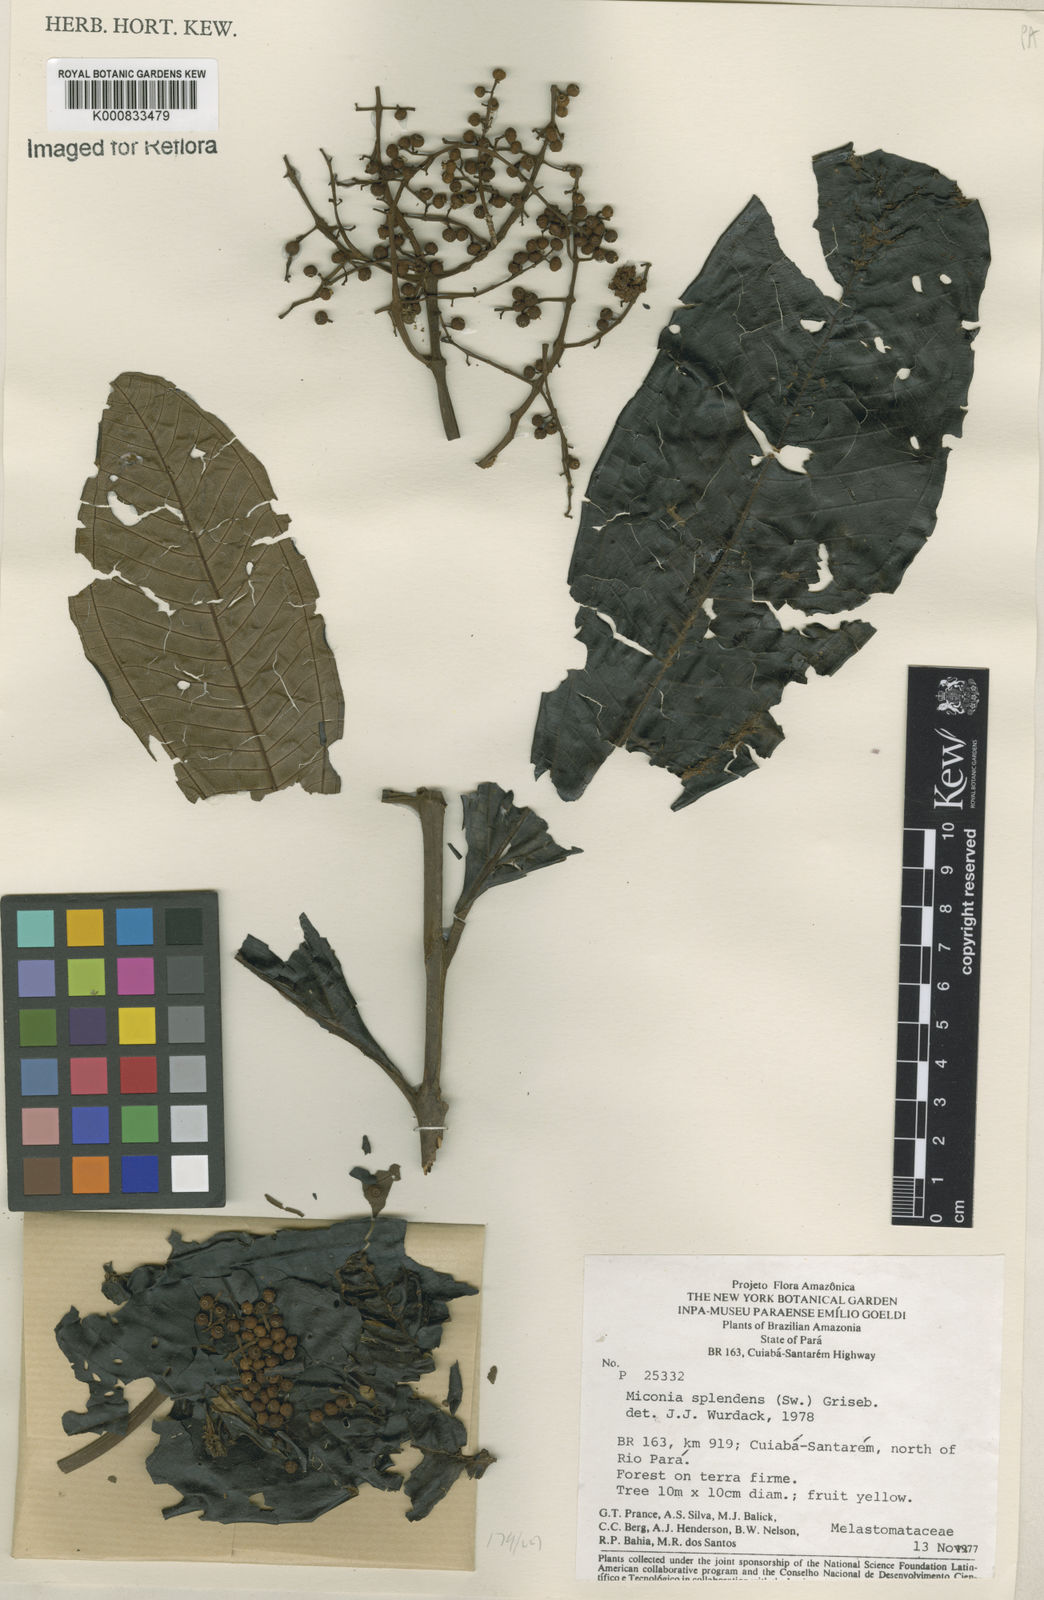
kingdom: Plantae
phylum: Tracheophyta
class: Magnoliopsida
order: Myrtales
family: Melastomataceae
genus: Miconia
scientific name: Miconia splendens
